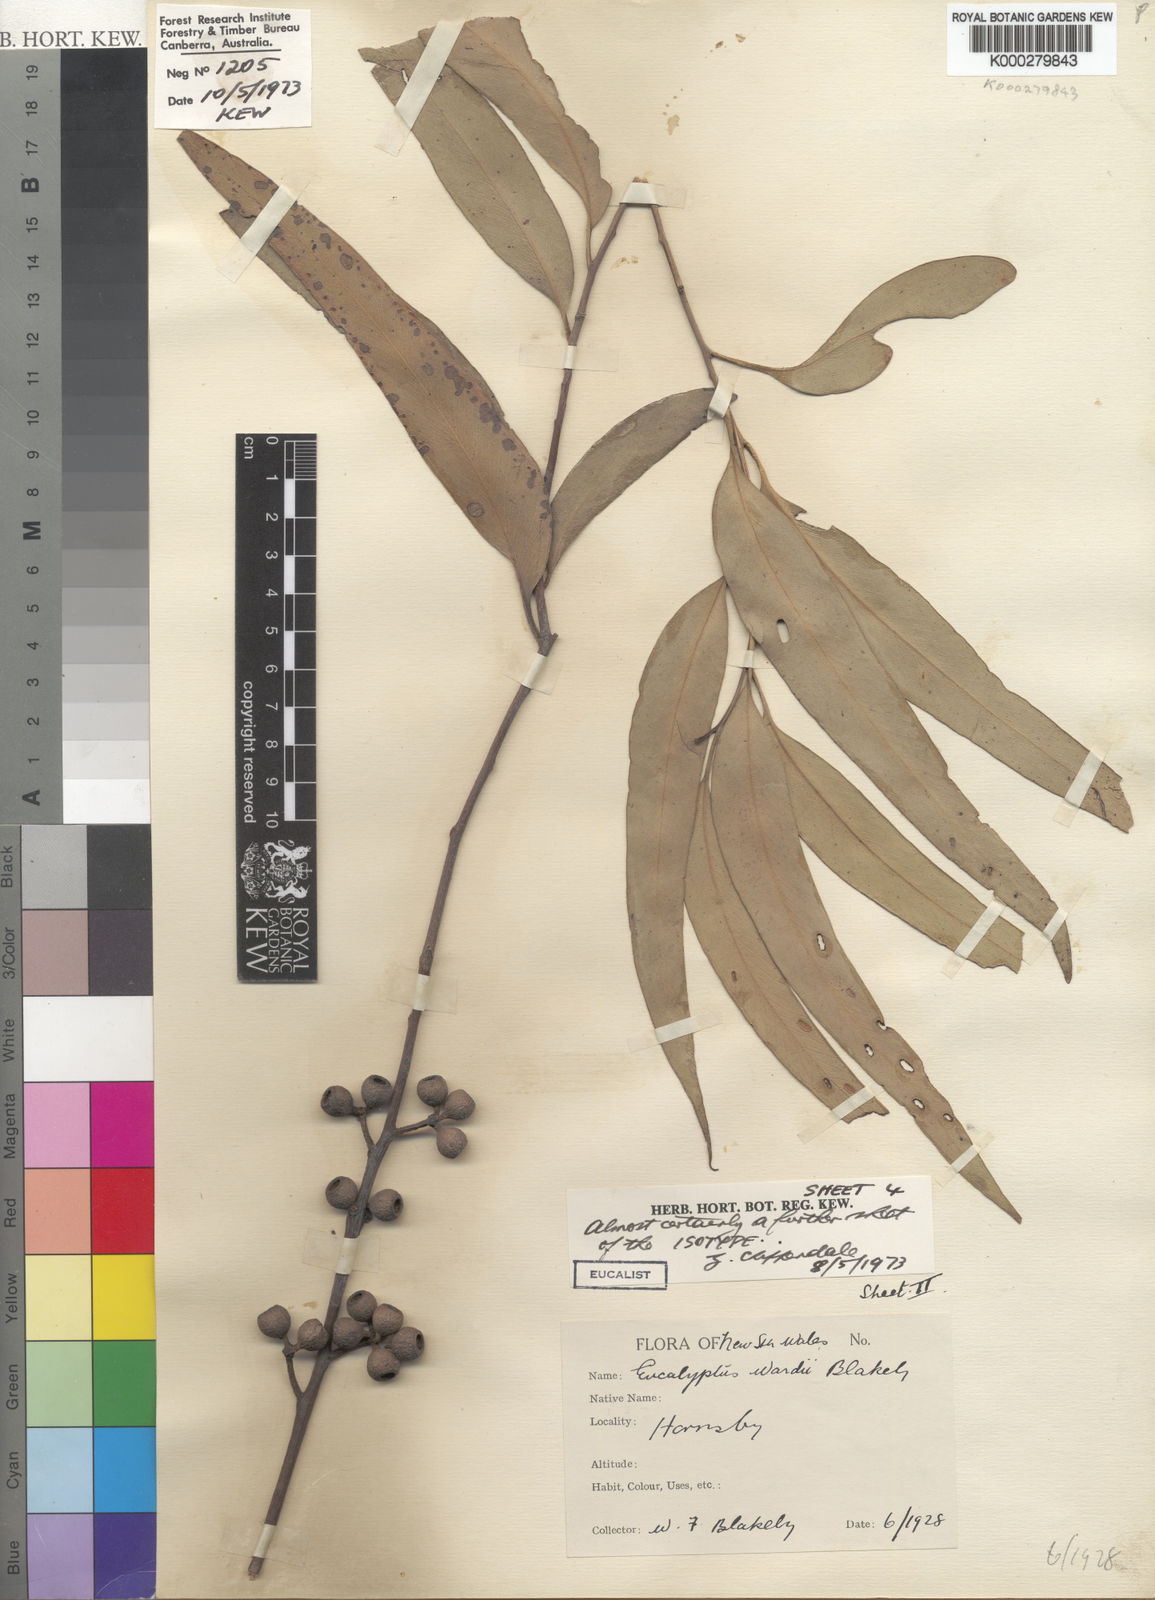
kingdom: Plantae
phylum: Tracheophyta
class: Magnoliopsida
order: Myrtales
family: Myrtaceae
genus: Eucalyptus
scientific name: Eucalyptus wardii
